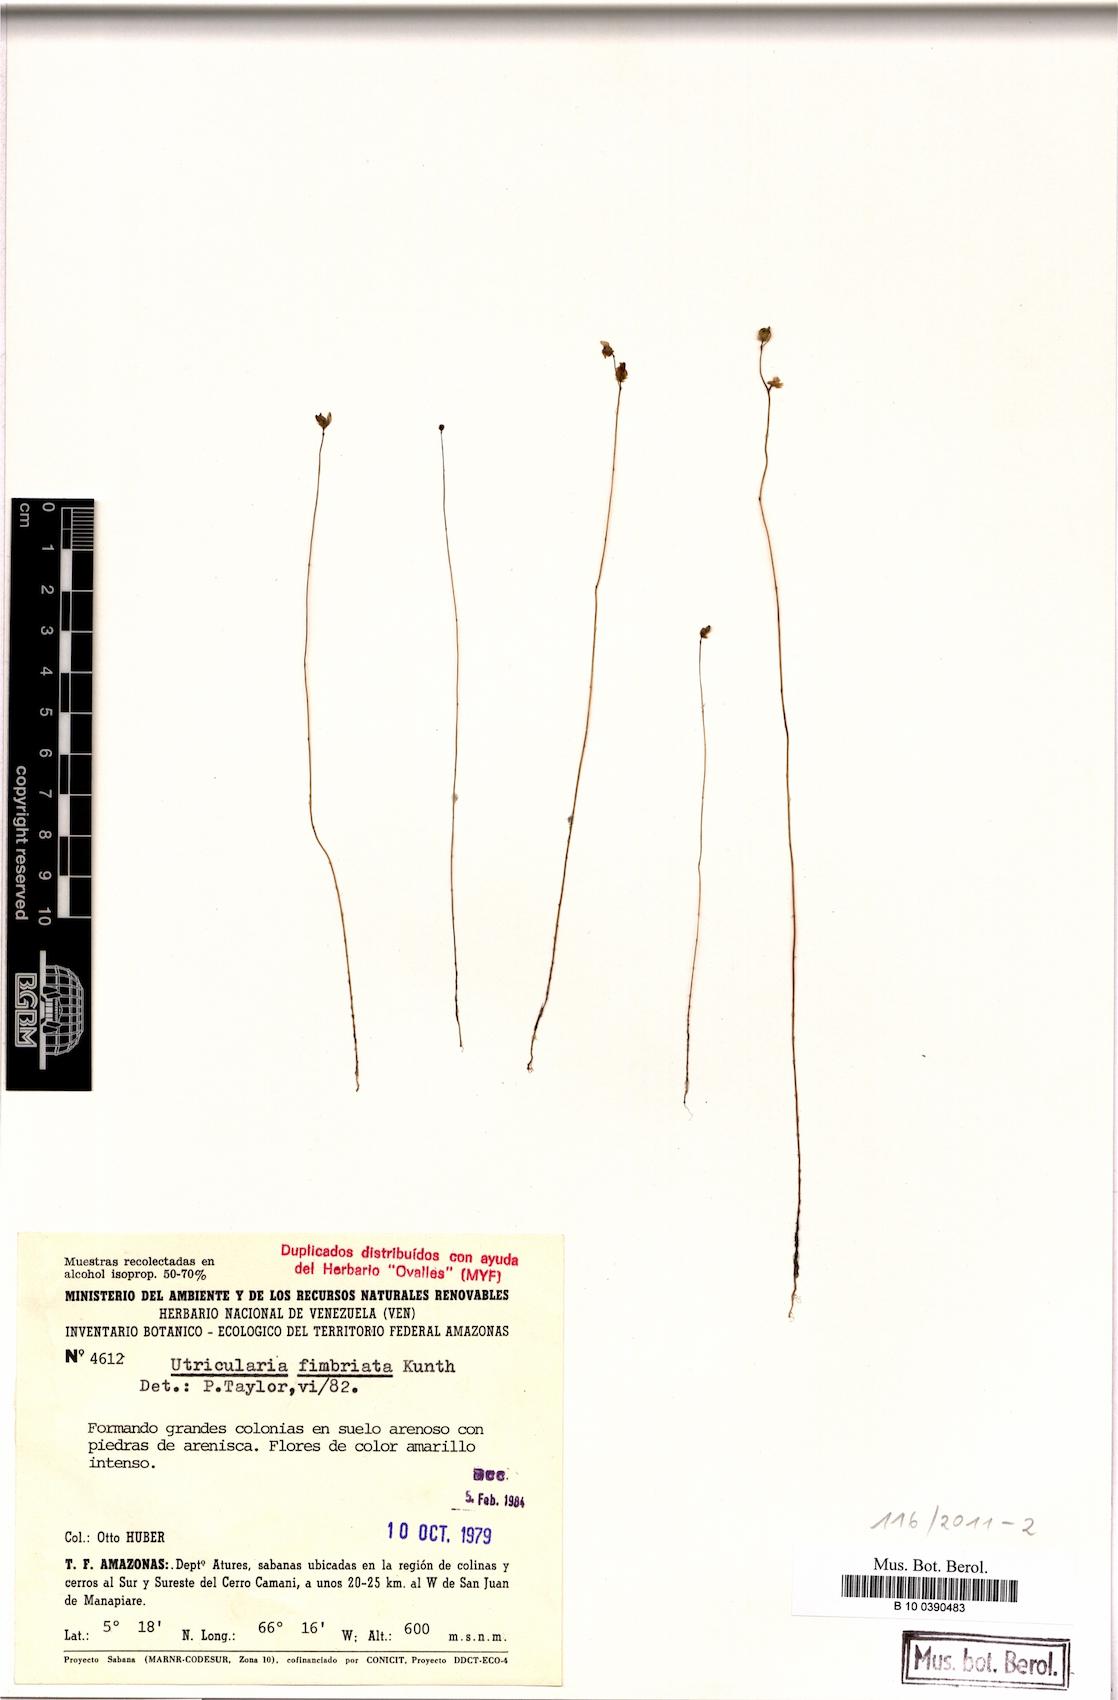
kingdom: Plantae
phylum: Tracheophyta
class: Magnoliopsida
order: Lamiales
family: Lentibulariaceae
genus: Utricularia
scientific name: Utricularia laciniata
